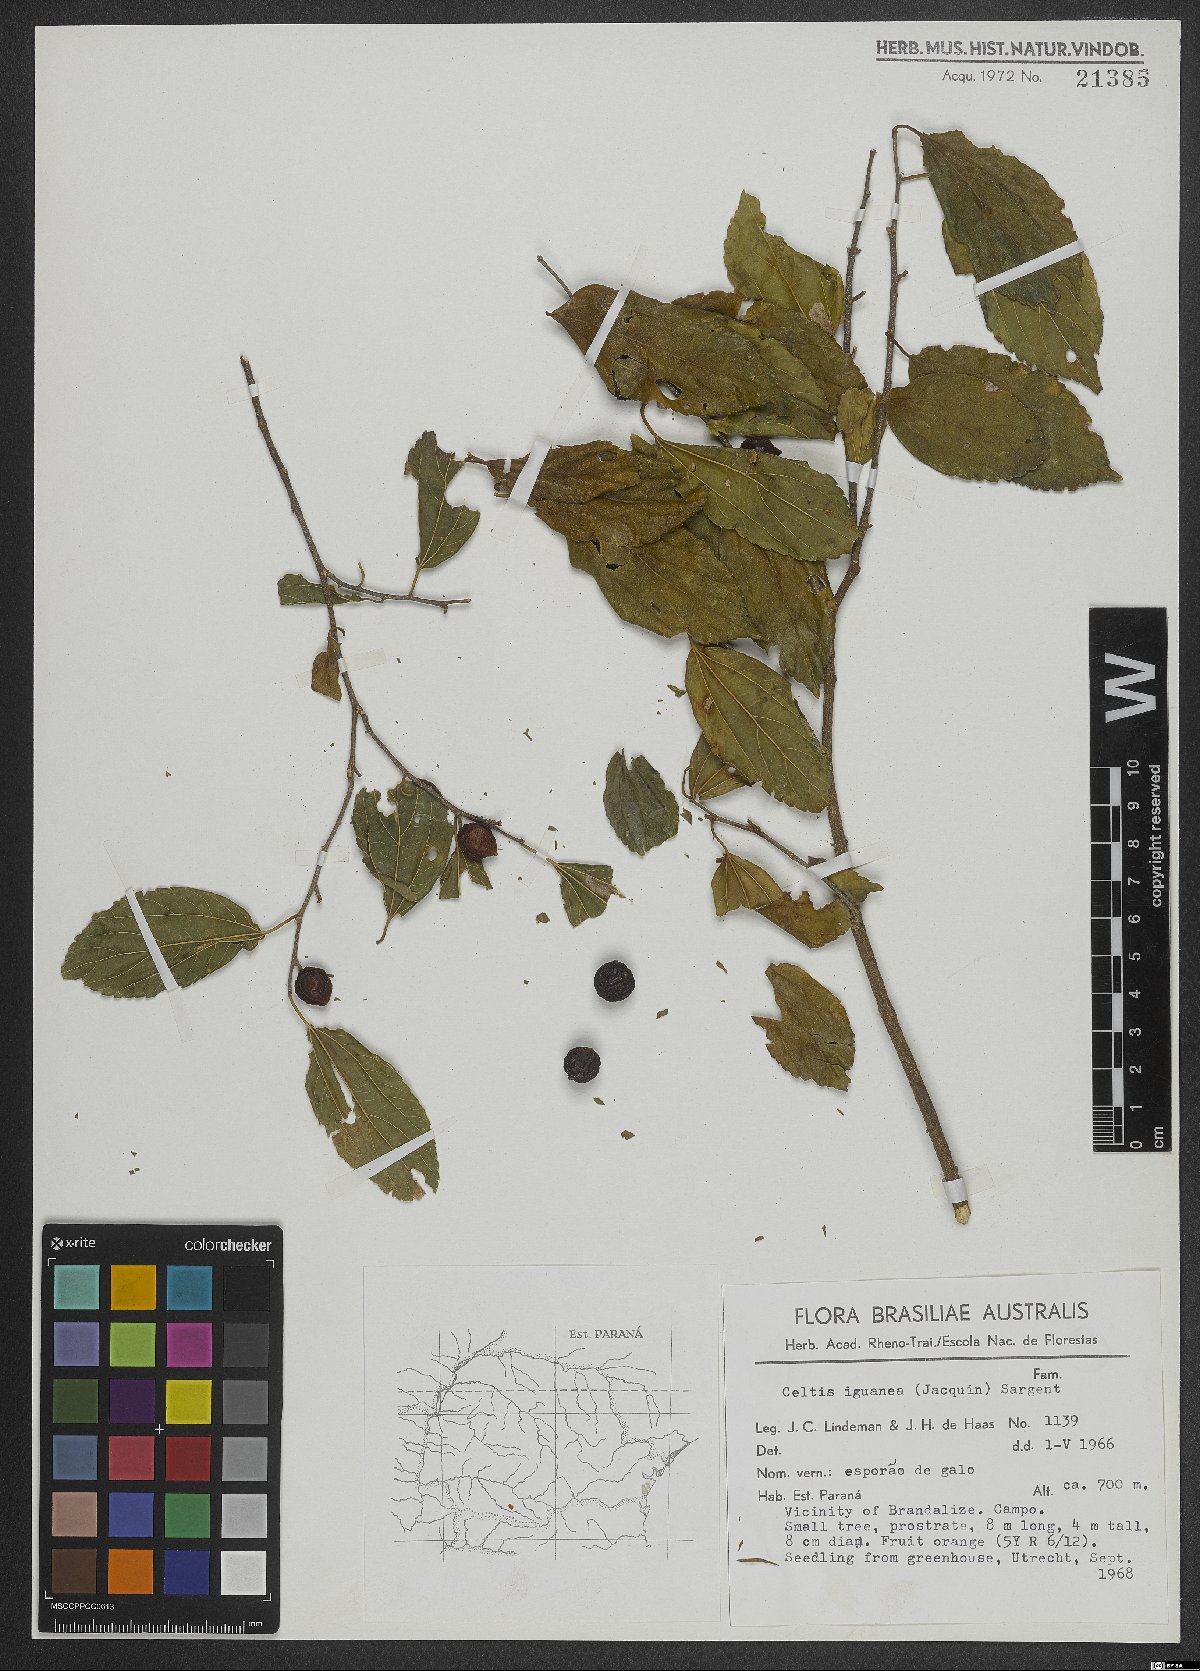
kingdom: Plantae
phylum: Tracheophyta
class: Magnoliopsida
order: Rosales
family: Cannabaceae
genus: Celtis
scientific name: Celtis iguanaea
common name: Iguana hackberry
